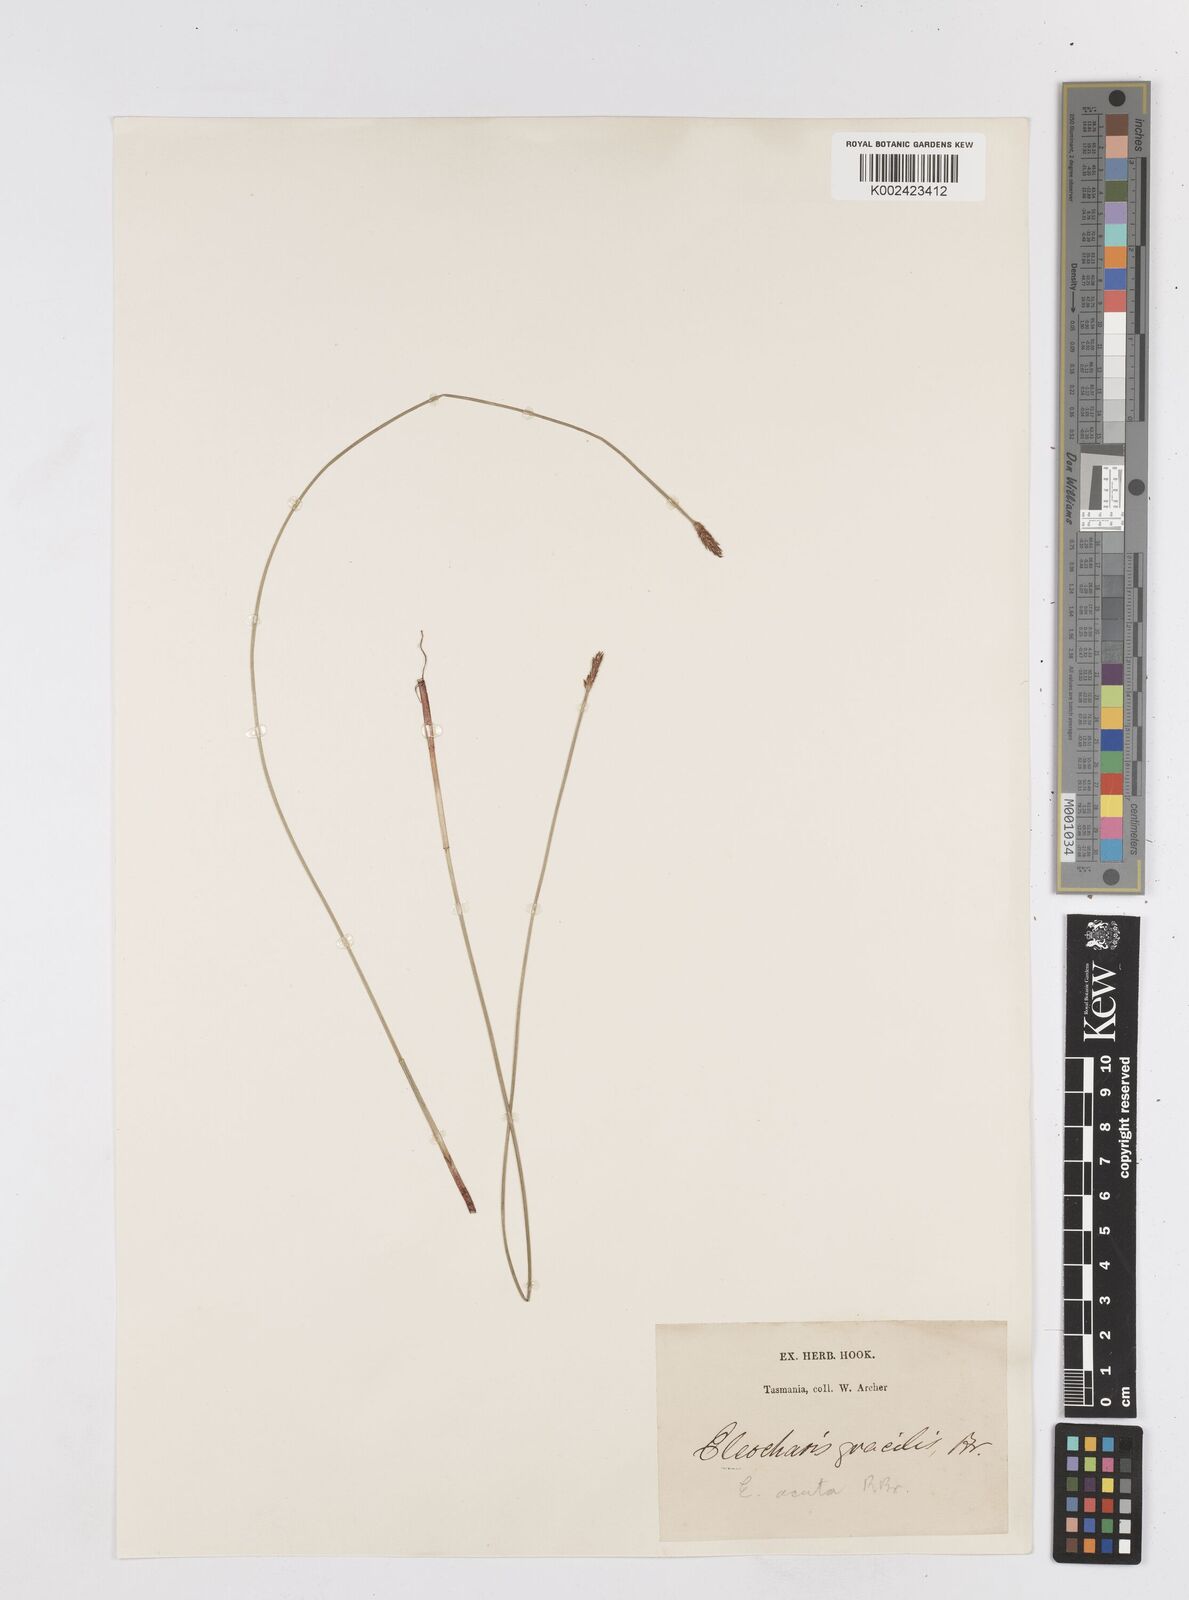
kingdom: Plantae
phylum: Tracheophyta
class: Liliopsida
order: Poales
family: Cyperaceae
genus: Eleocharis
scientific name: Eleocharis acuta
